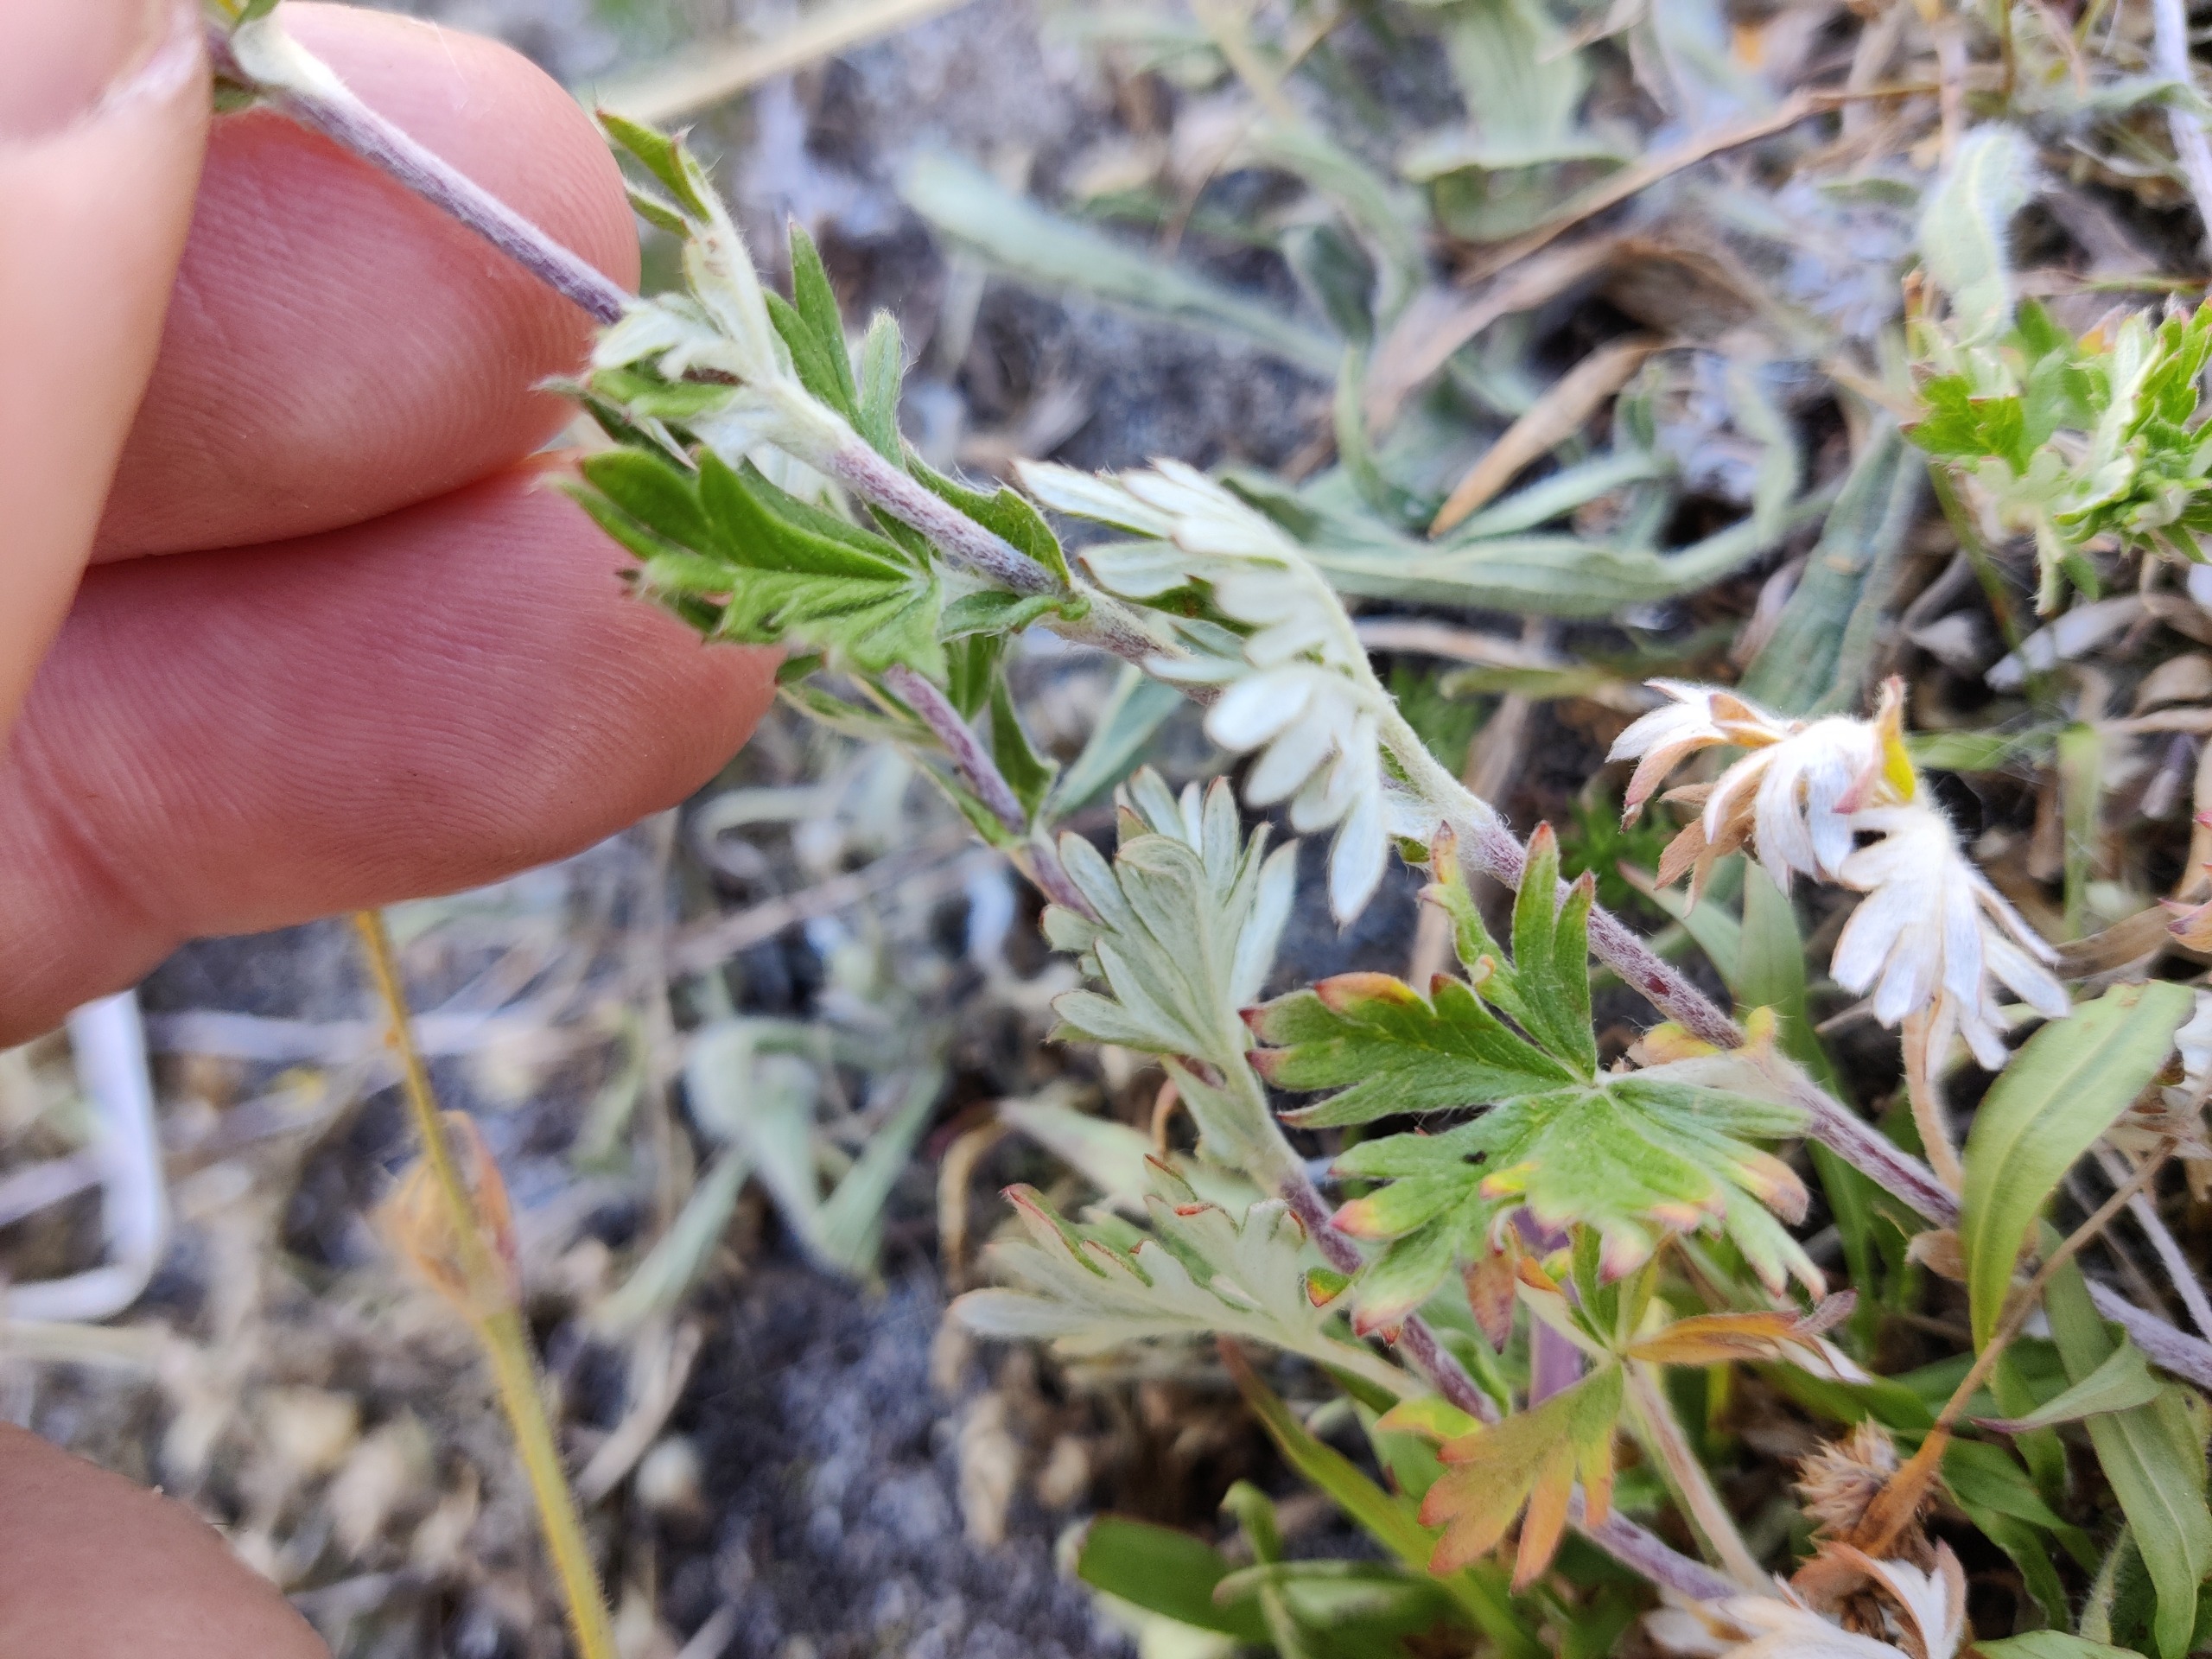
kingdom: Plantae
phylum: Tracheophyta
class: Magnoliopsida
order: Rosales
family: Rosaceae
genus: Potentilla
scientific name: Potentilla argentea
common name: Sølv-potentil
